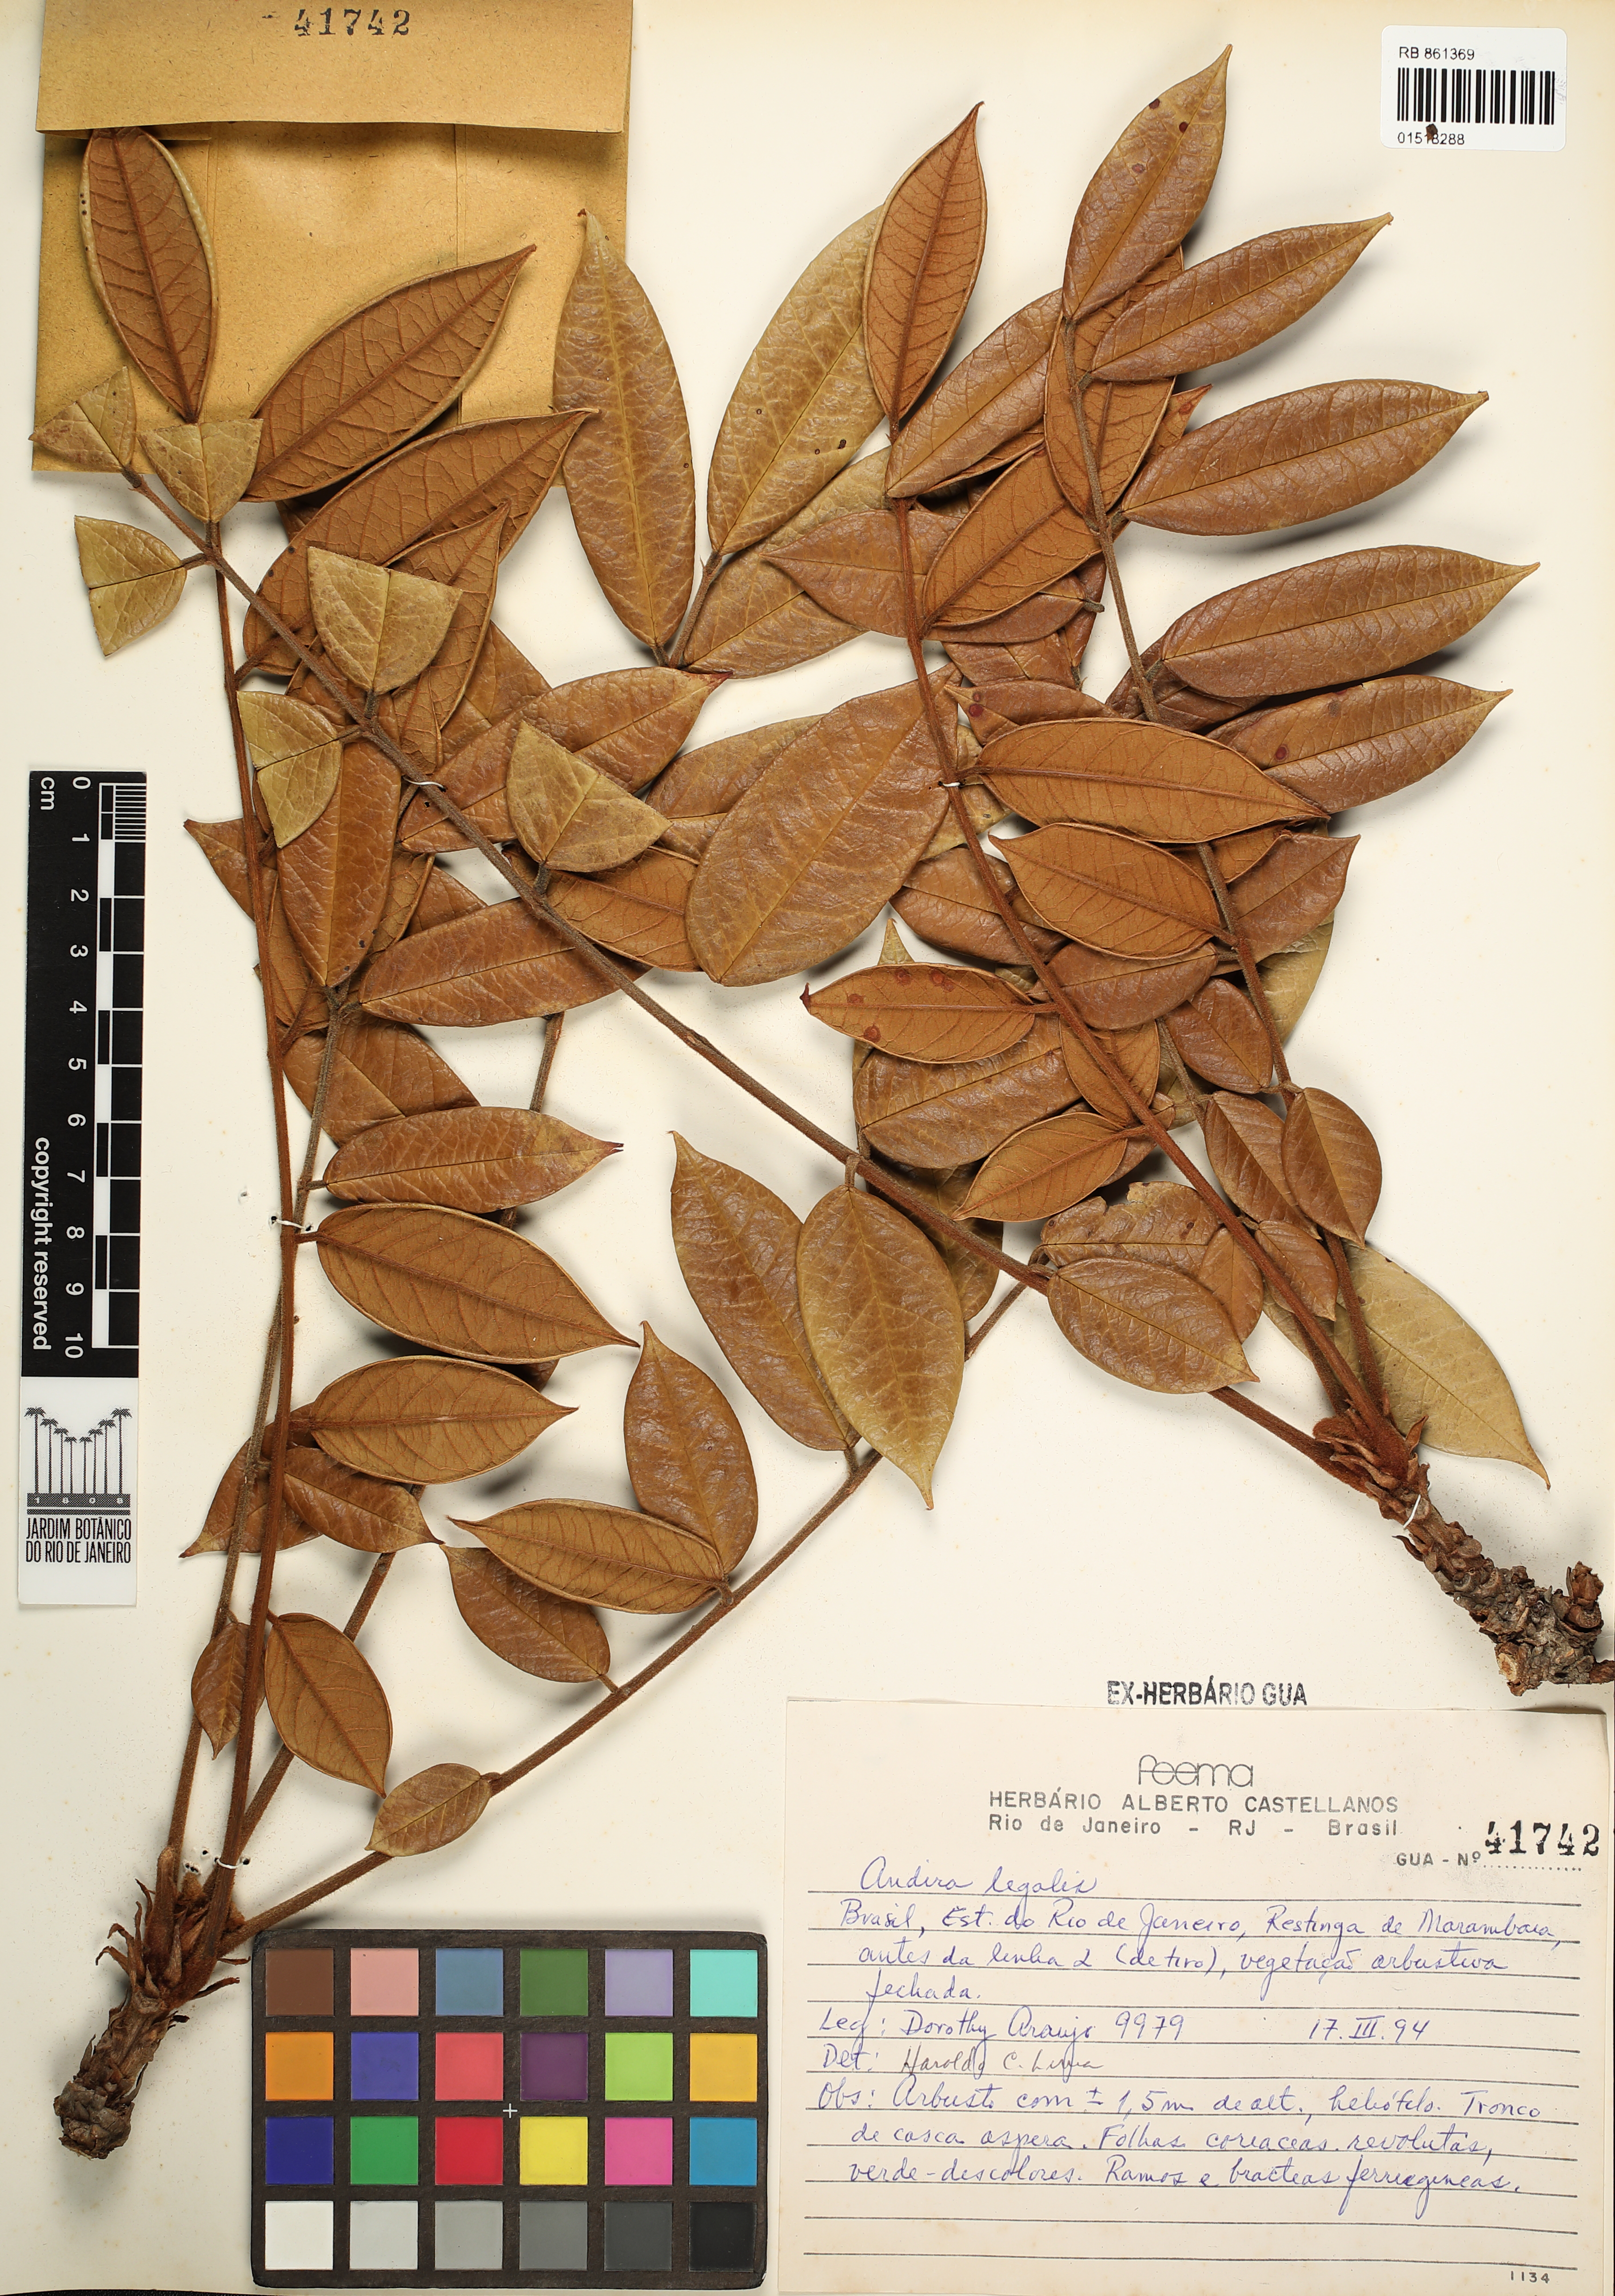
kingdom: Plantae
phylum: Tracheophyta
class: Magnoliopsida
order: Fabales
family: Fabaceae
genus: Andira
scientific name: Andira legalis
